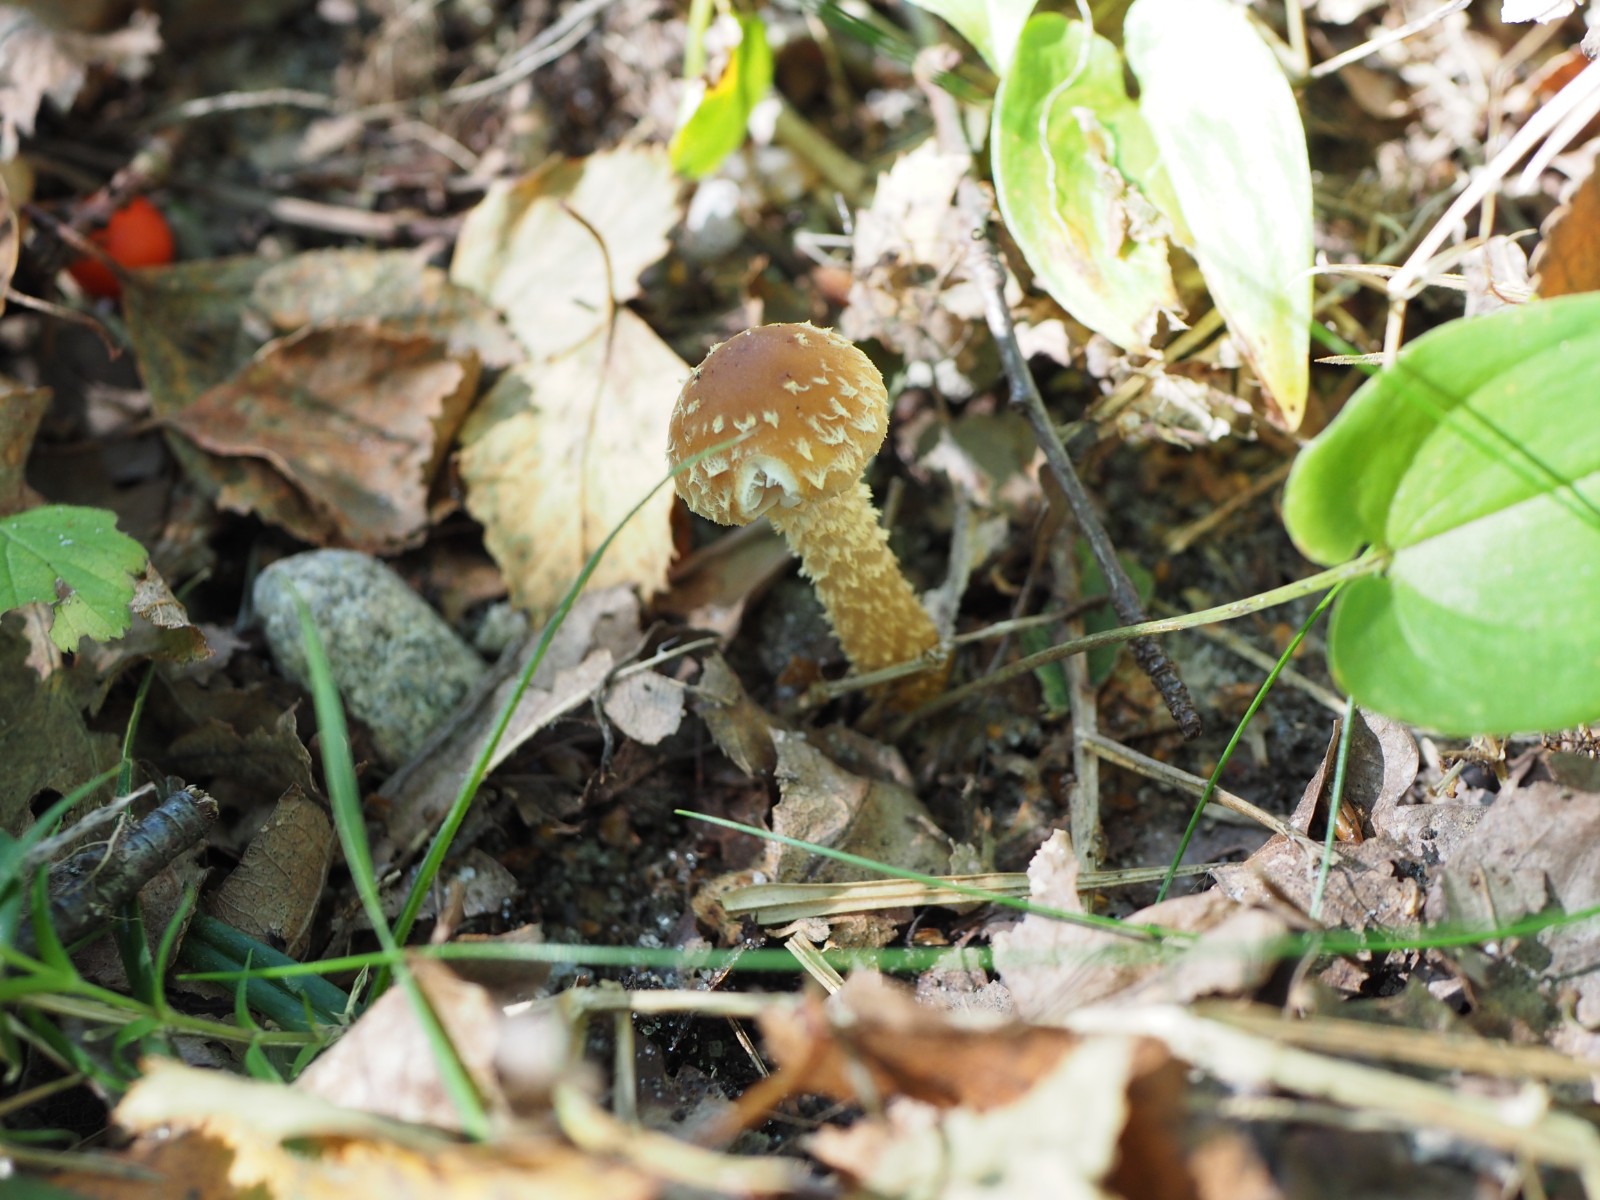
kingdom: Fungi
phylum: Basidiomycota
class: Agaricomycetes
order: Agaricales
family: Strophariaceae
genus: Leratiomyces
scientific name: Leratiomyces squamosus
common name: skællet bredblad
